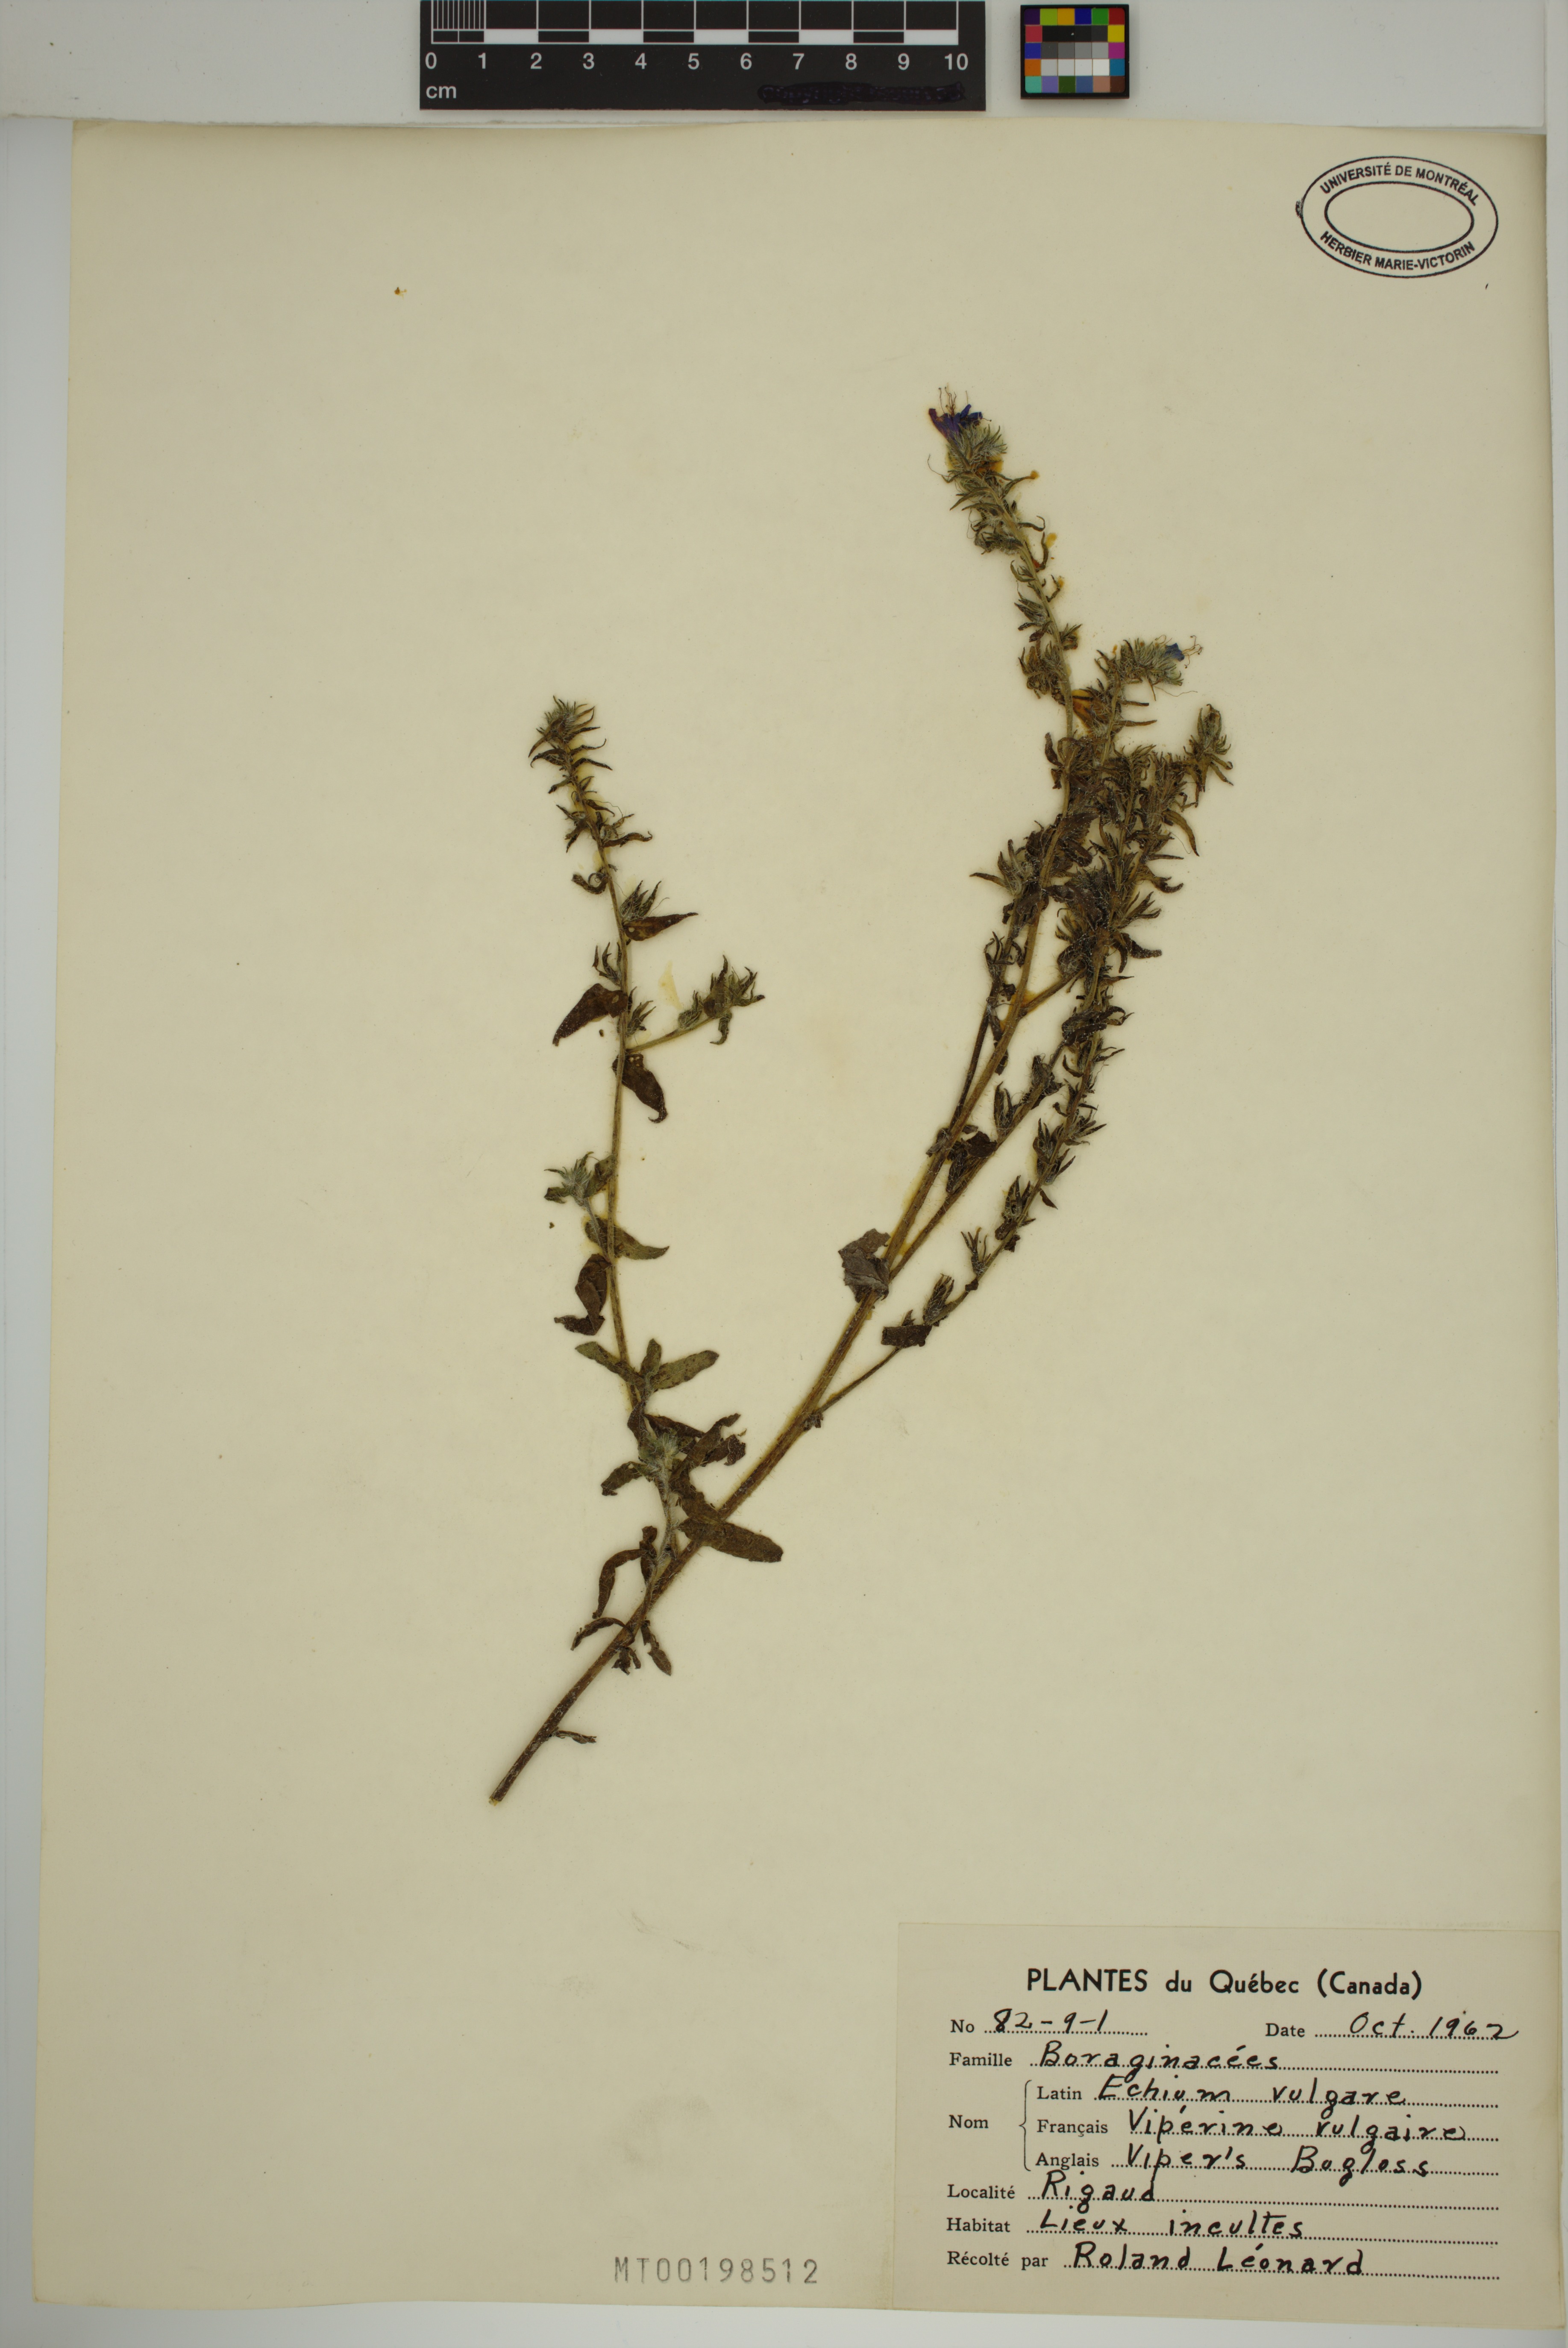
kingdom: Plantae
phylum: Tracheophyta
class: Magnoliopsida
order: Boraginales
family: Boraginaceae
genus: Echium
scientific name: Echium vulgare
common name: Common viper's bugloss
